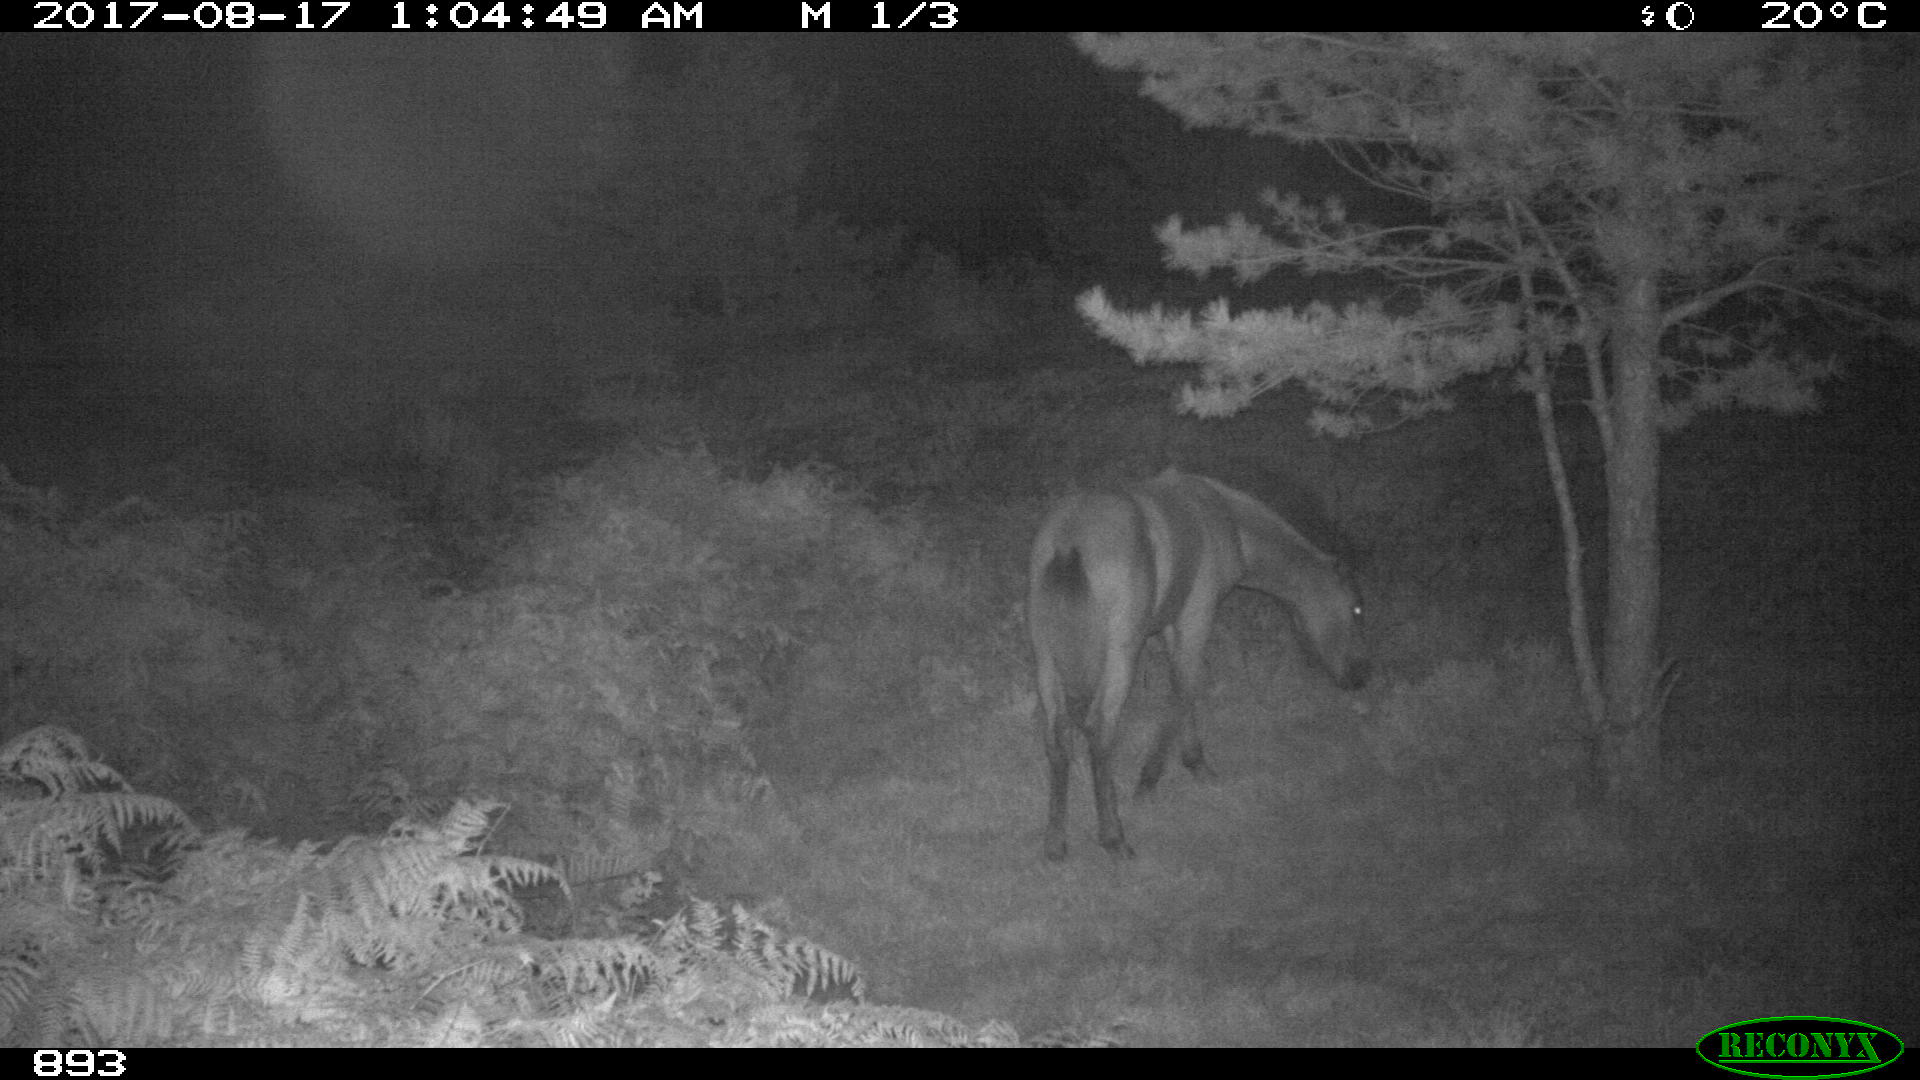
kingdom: Animalia
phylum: Chordata
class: Mammalia
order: Perissodactyla
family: Equidae
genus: Equus
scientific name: Equus caballus
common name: Horse
